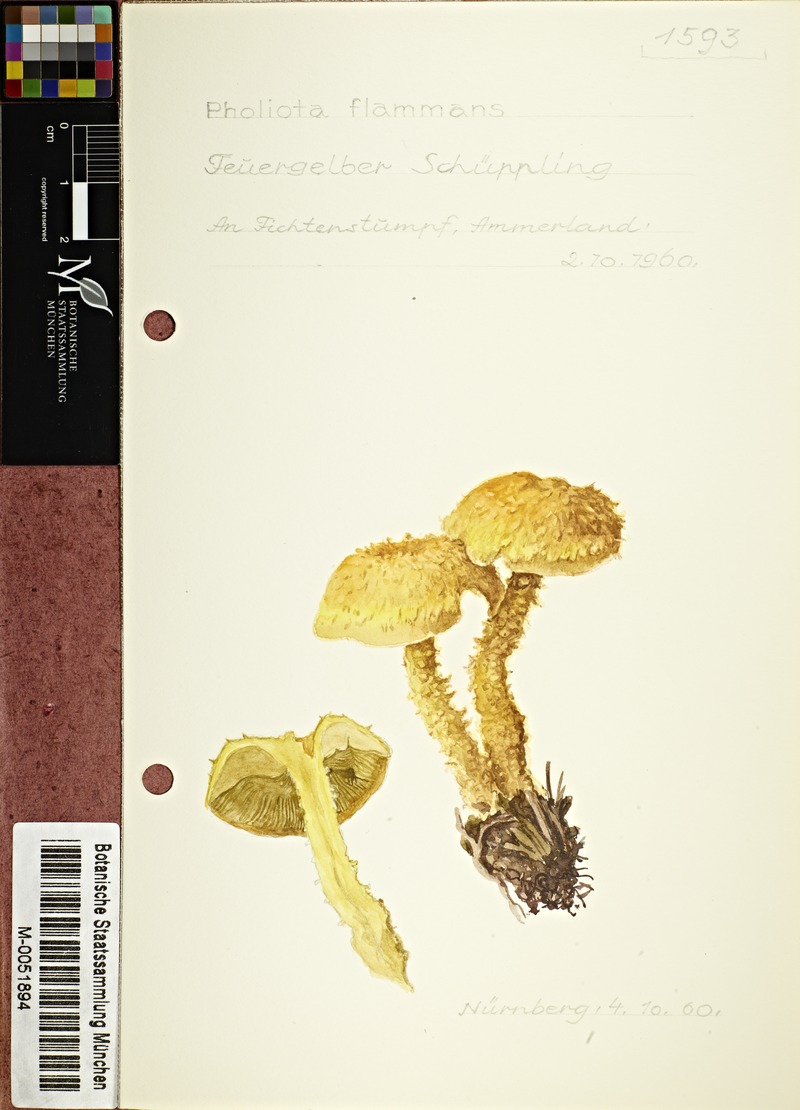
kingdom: Fungi
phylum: Basidiomycota
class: Agaricomycetes
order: Agaricales
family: Strophariaceae
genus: Pholiota
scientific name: Pholiota flammans
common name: Flaming scalycap
